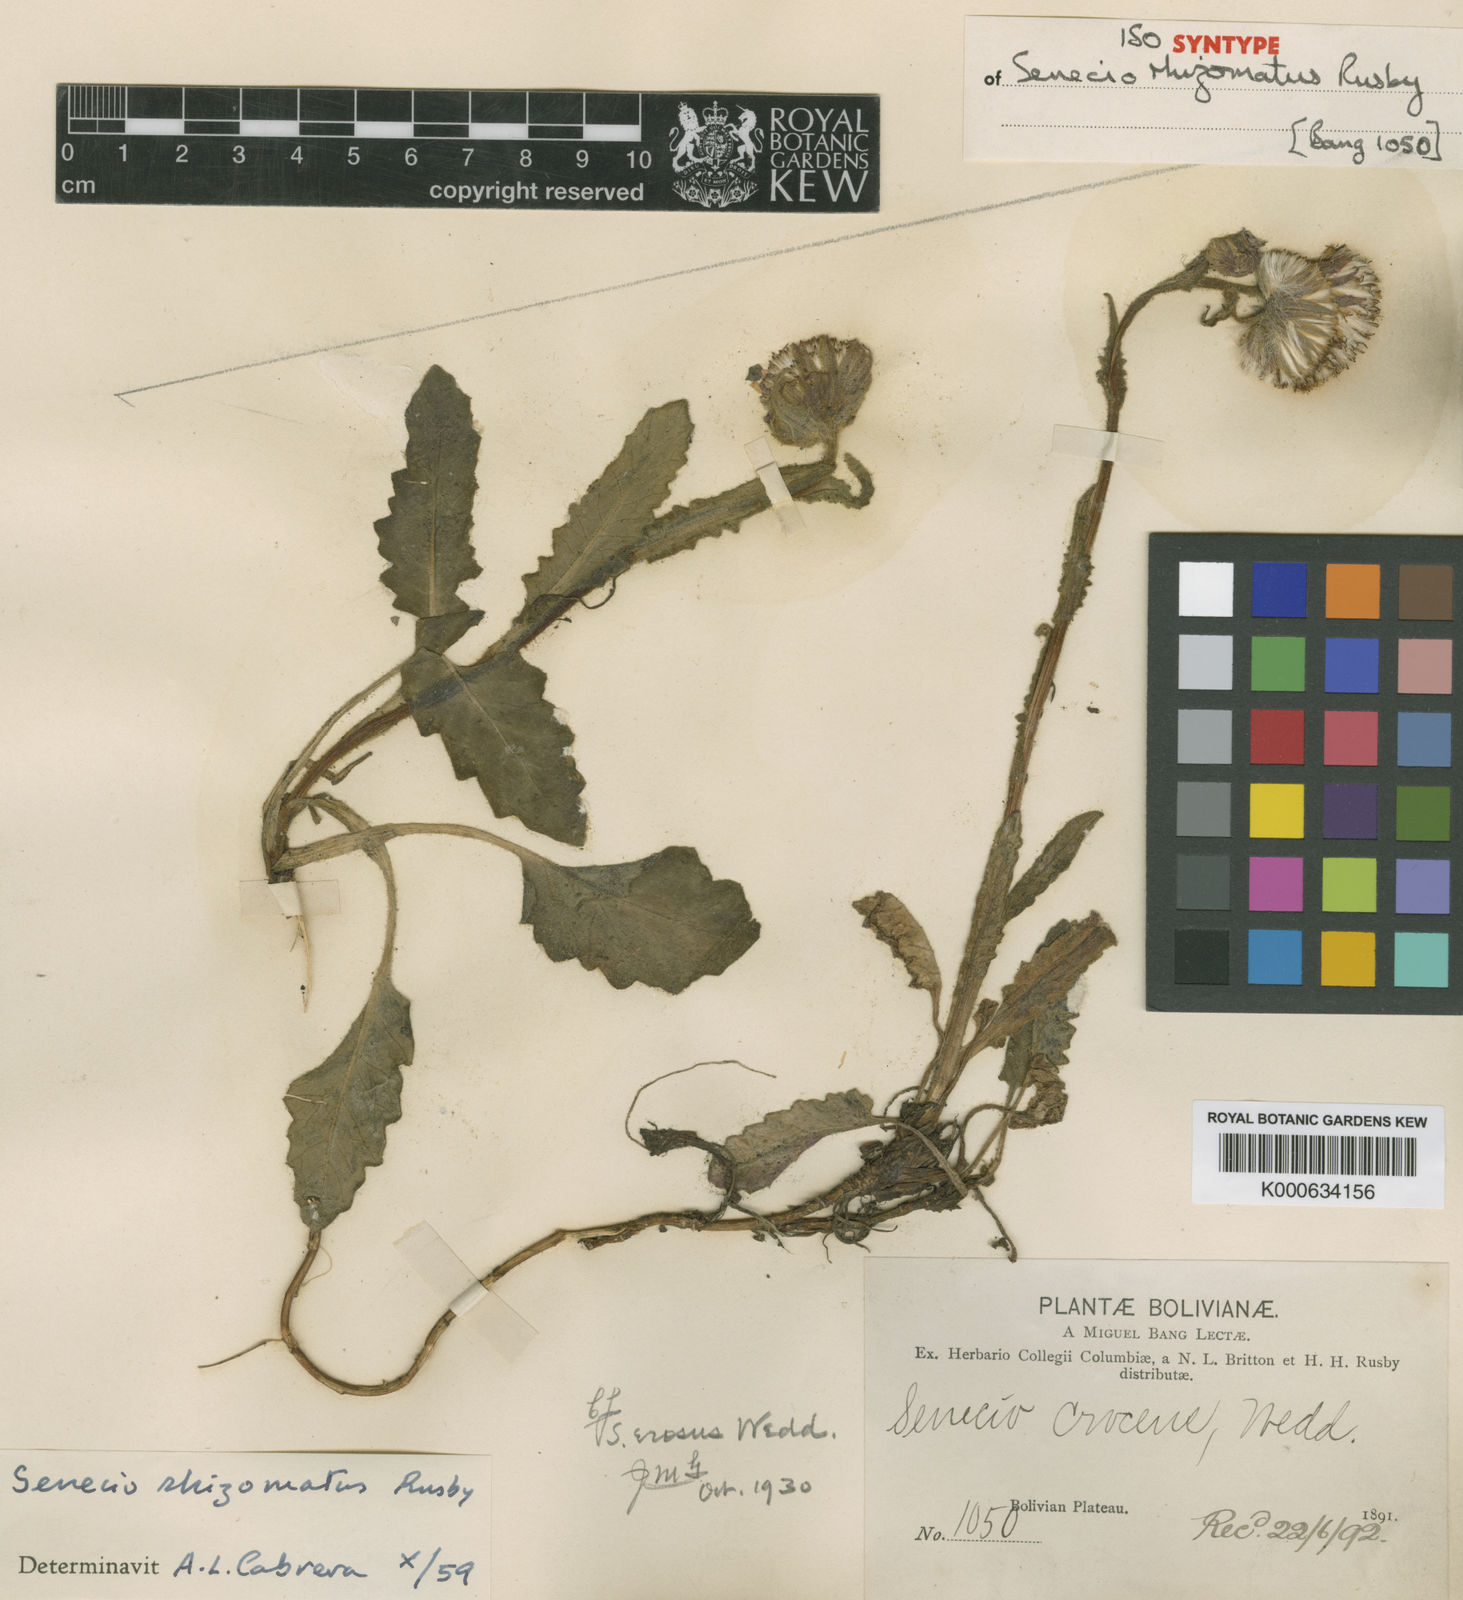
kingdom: Plantae
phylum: Tracheophyta
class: Magnoliopsida
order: Asterales
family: Asteraceae
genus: Senecio
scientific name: Senecio rhizomatus
